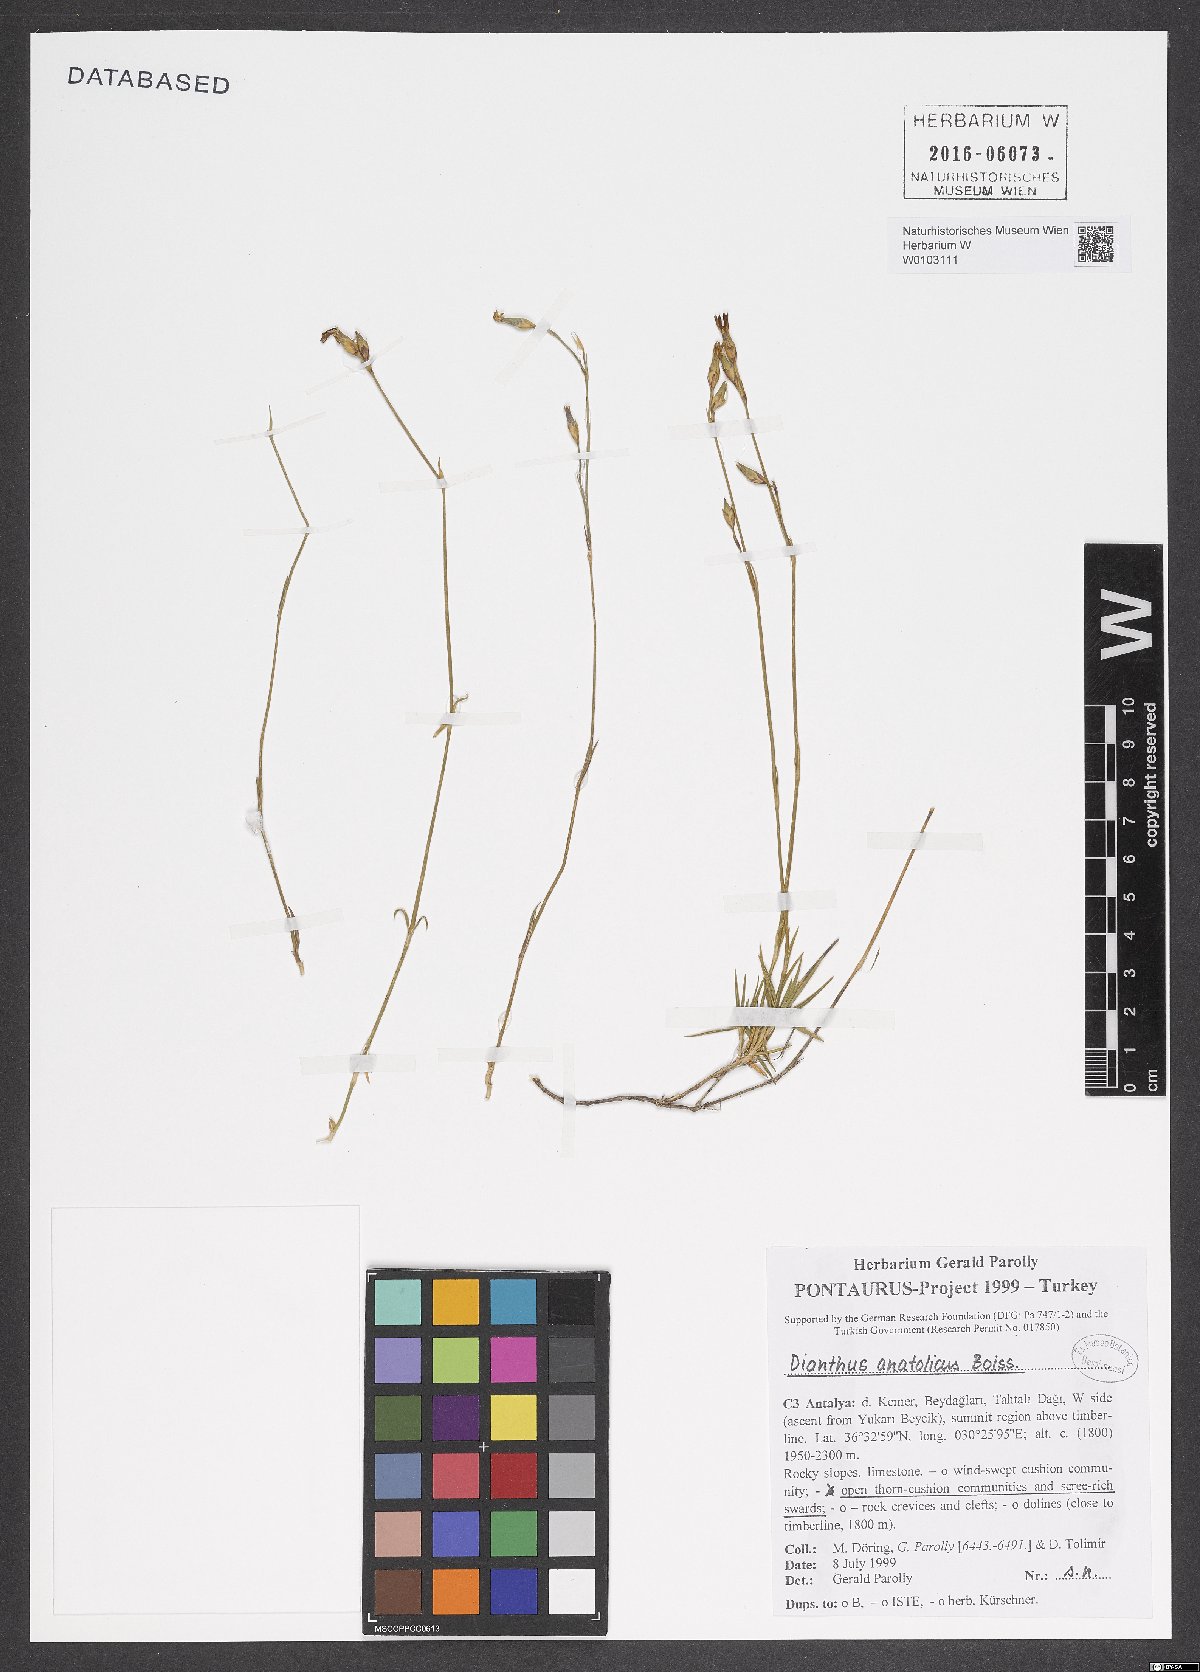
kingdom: Plantae
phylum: Tracheophyta
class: Magnoliopsida
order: Caryophyllales
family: Caryophyllaceae
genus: Dianthus
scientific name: Dianthus anatolicus
